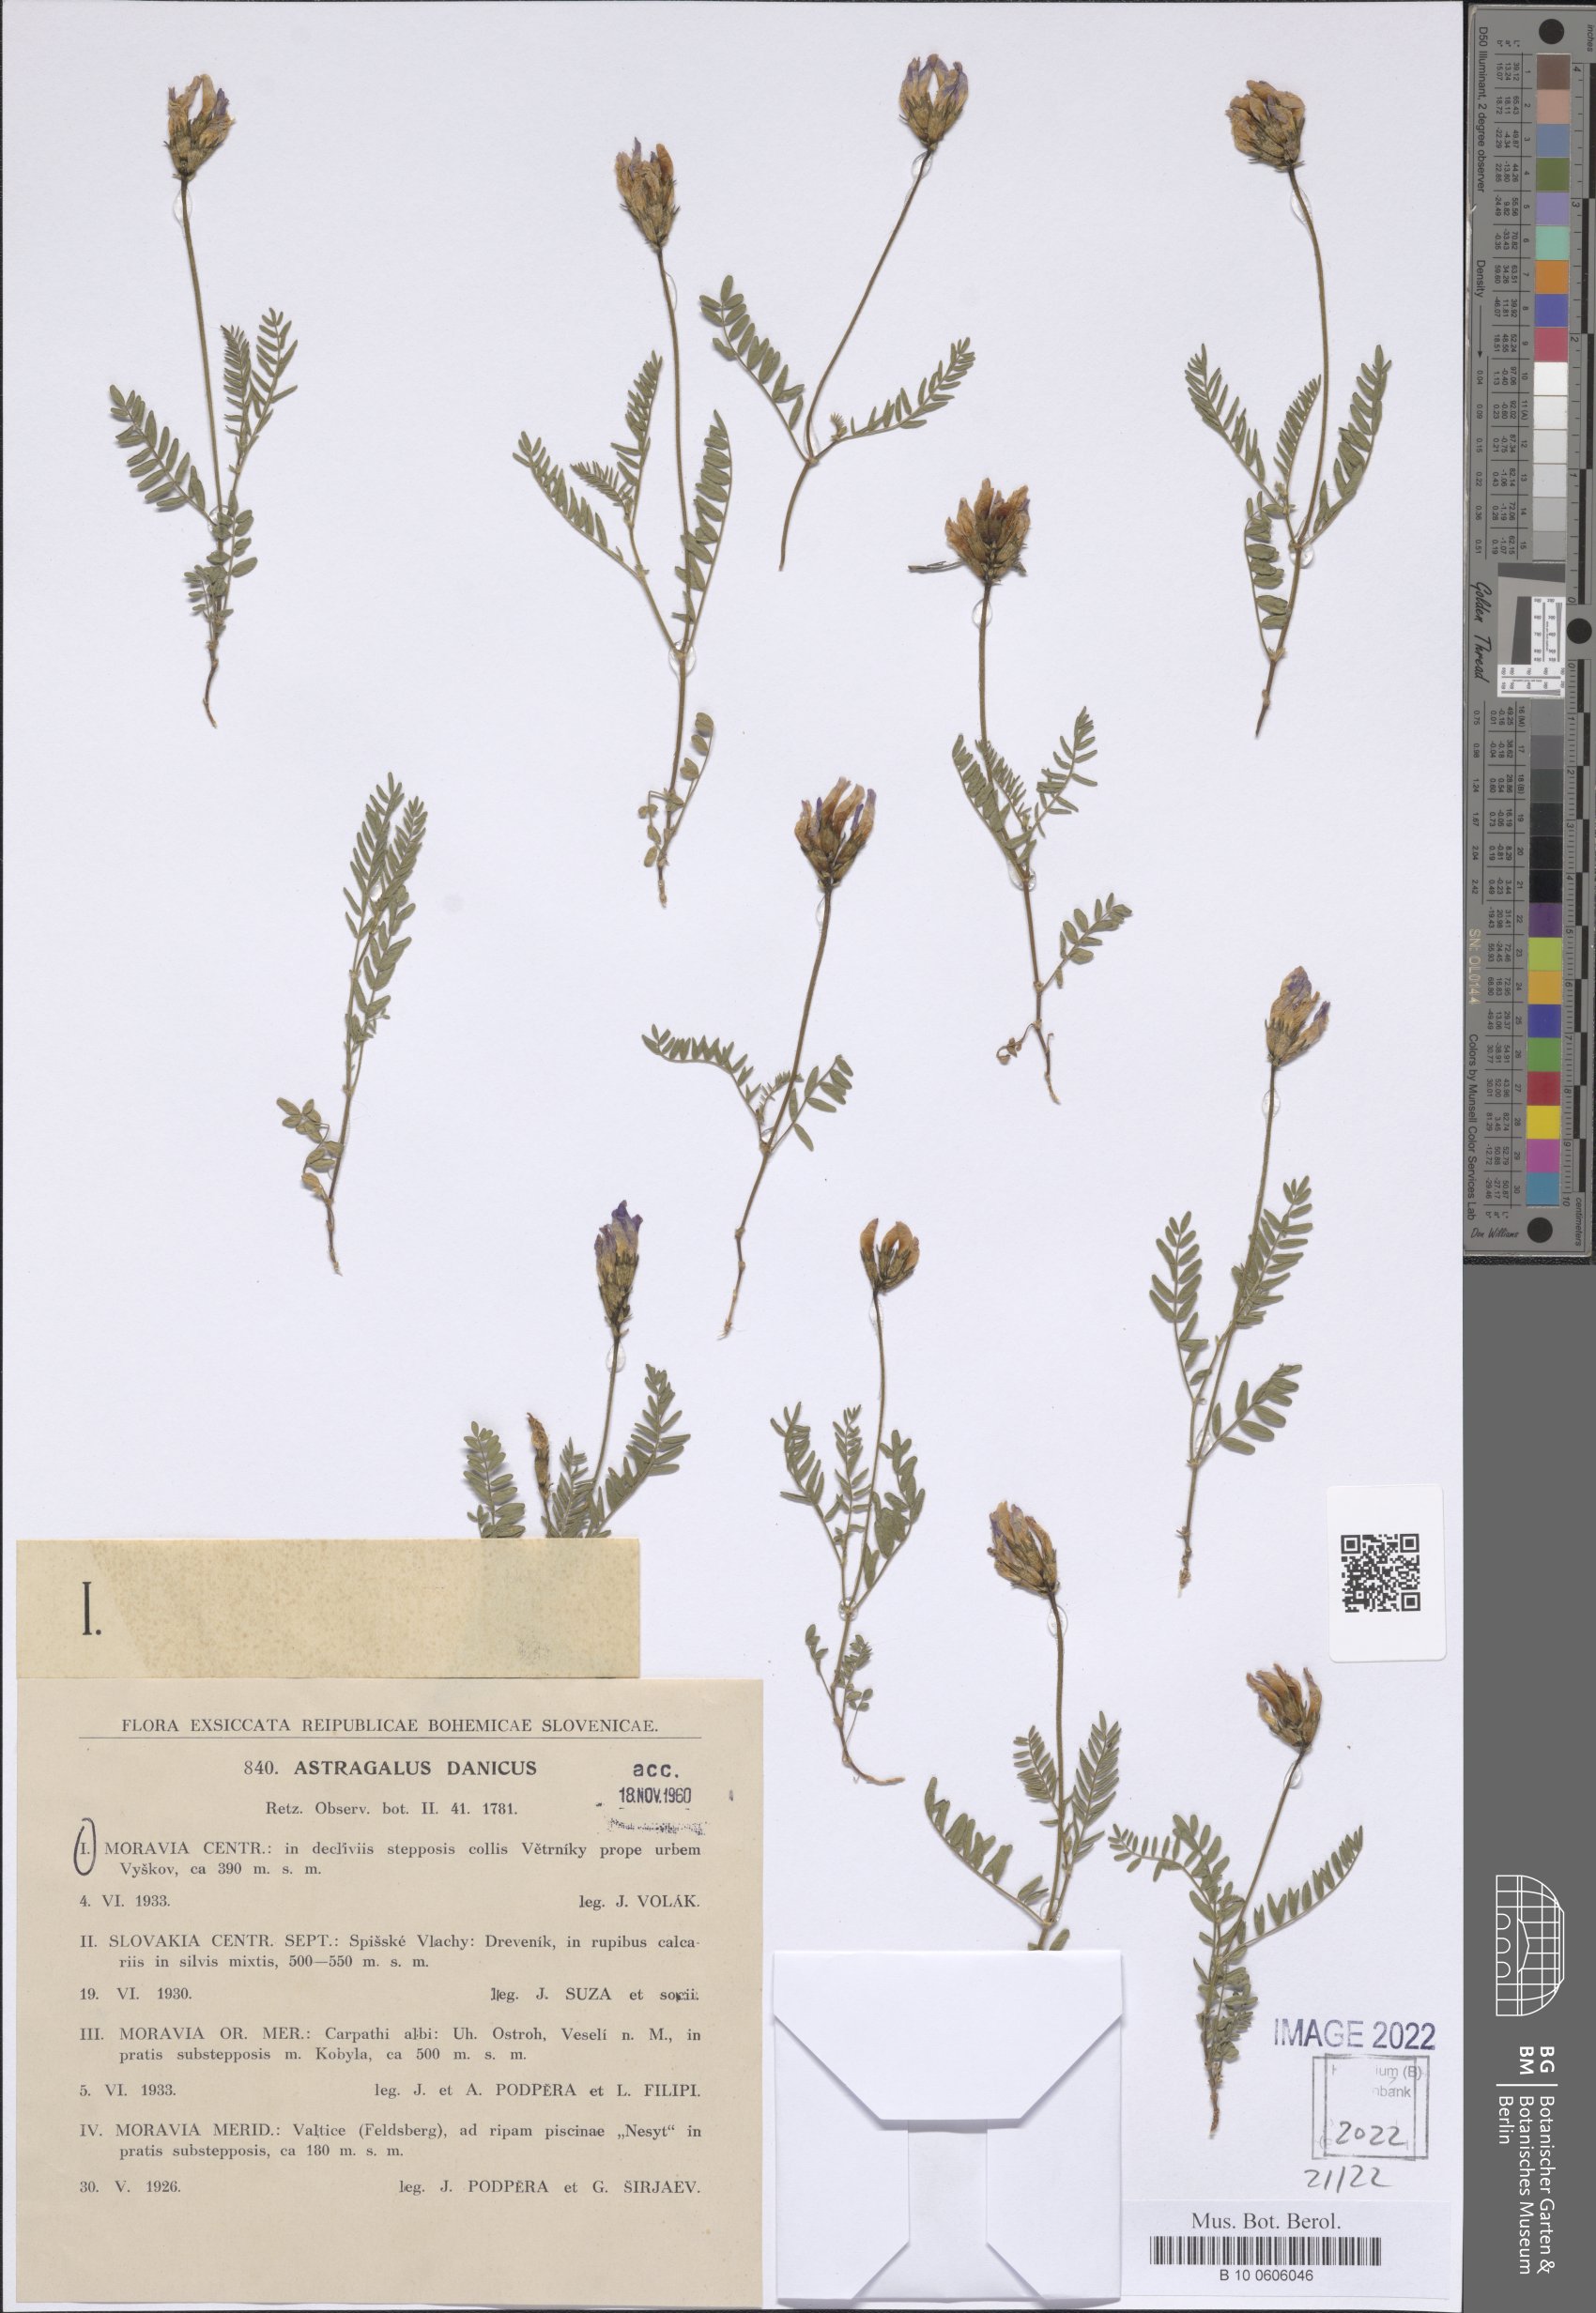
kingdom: Plantae
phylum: Tracheophyta
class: Magnoliopsida
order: Fabales
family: Fabaceae
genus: Astragalus
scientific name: Astragalus danicus
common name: Purple milk-vetch
